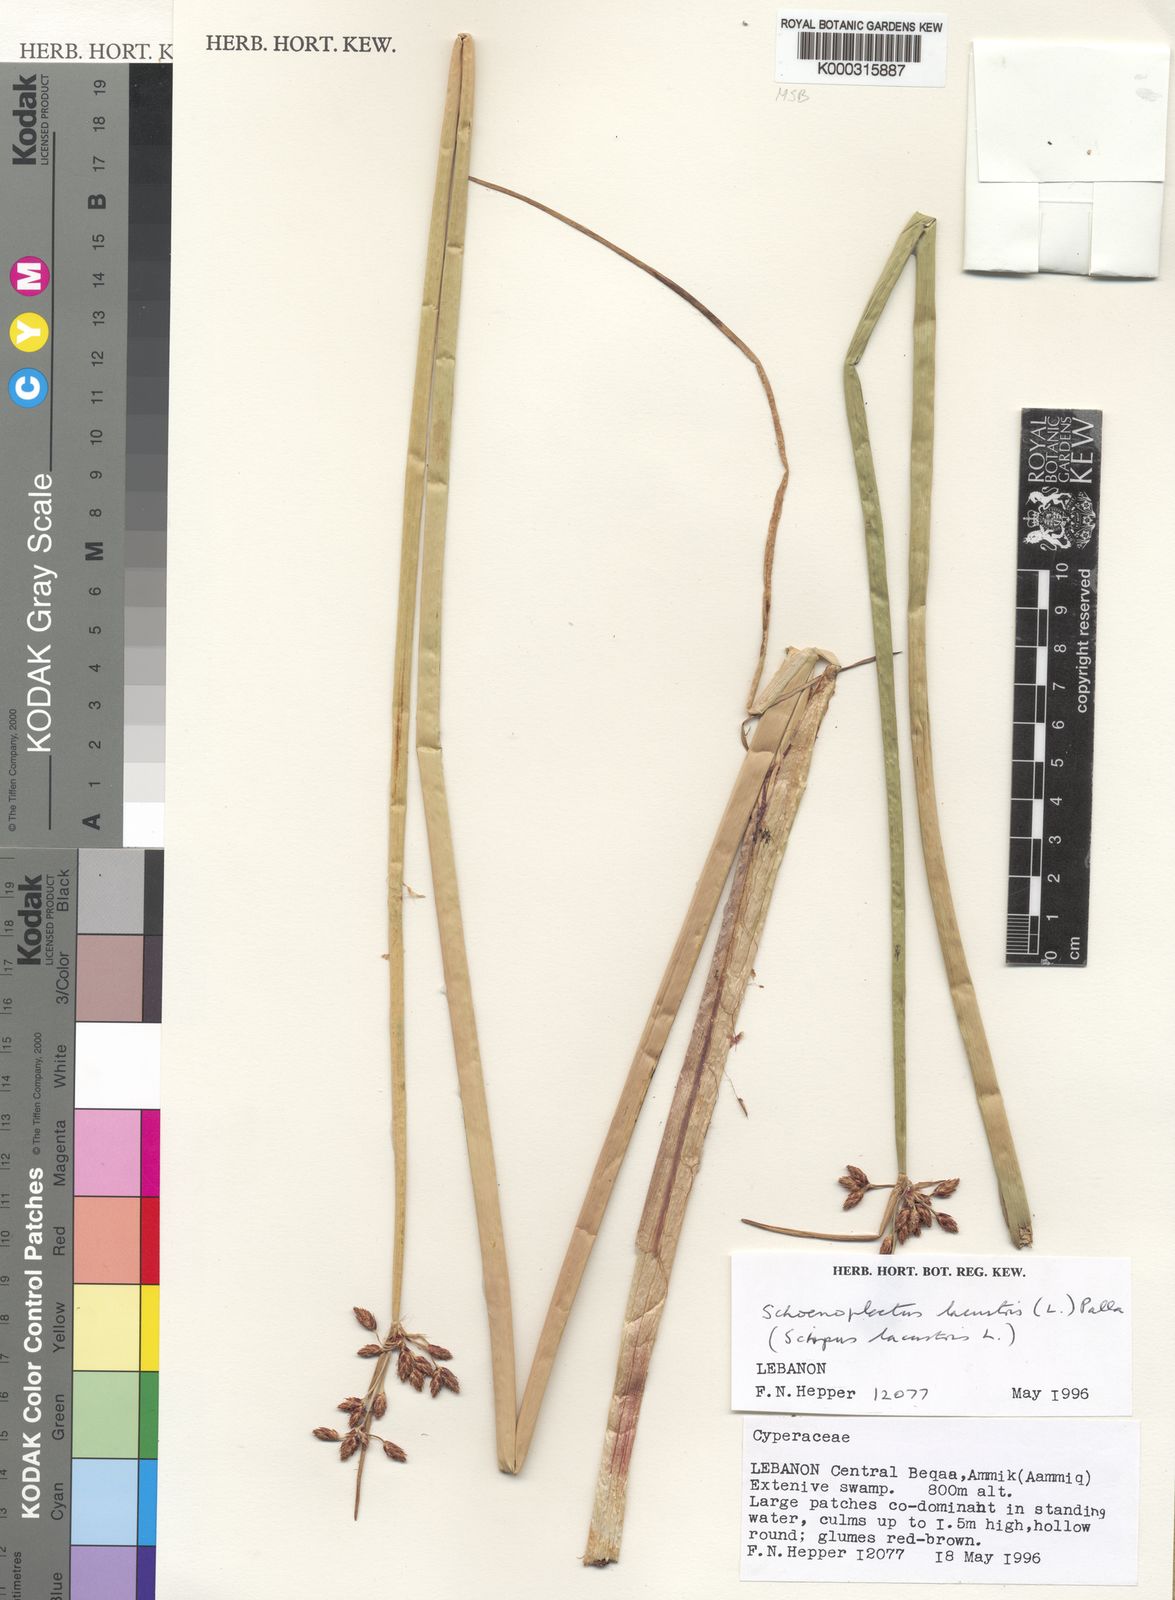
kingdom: Plantae
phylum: Tracheophyta
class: Liliopsida
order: Poales
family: Cyperaceae
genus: Schoenoplectus
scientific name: Schoenoplectus lacustris
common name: Common club-rush
